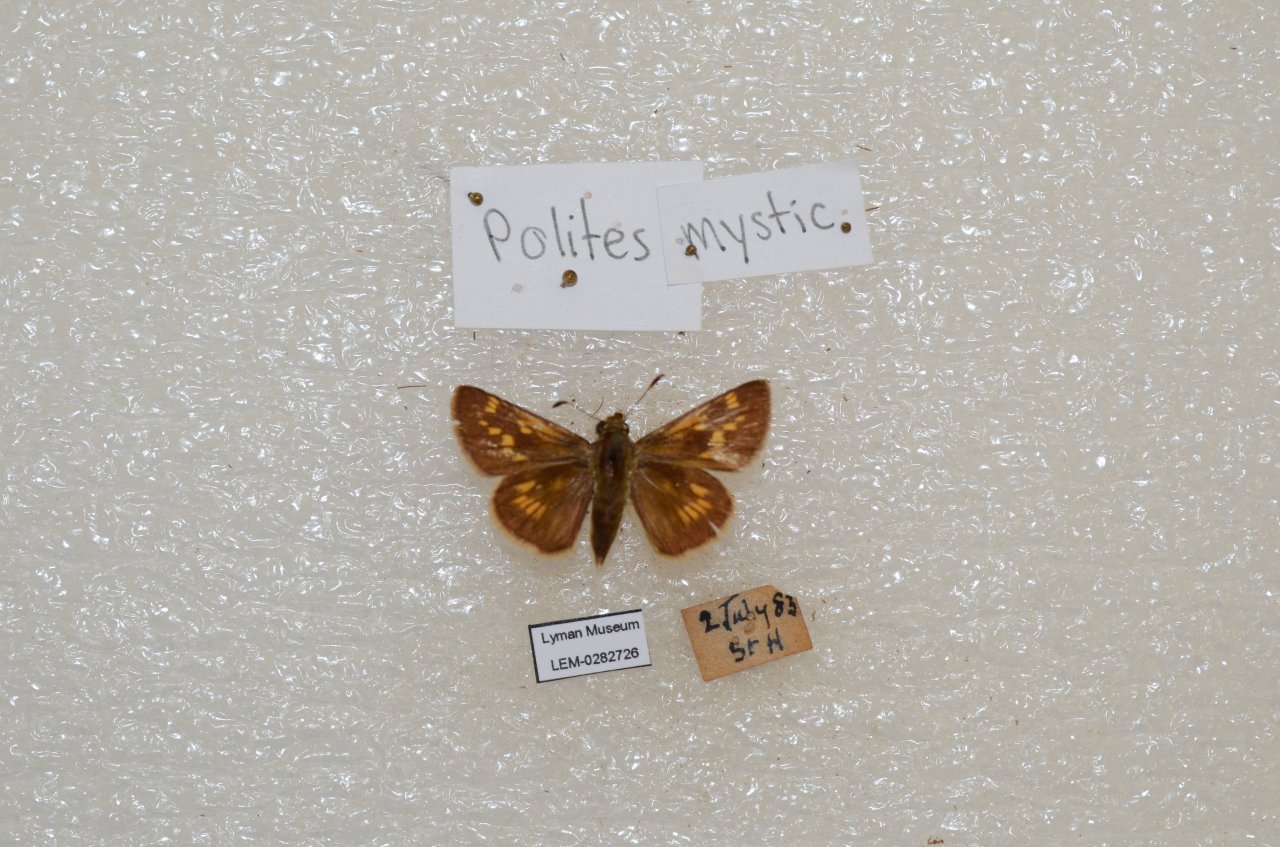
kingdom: Animalia
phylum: Arthropoda
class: Insecta
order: Lepidoptera
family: Hesperiidae
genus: Polites
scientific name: Polites
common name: Long Dash Skipper
